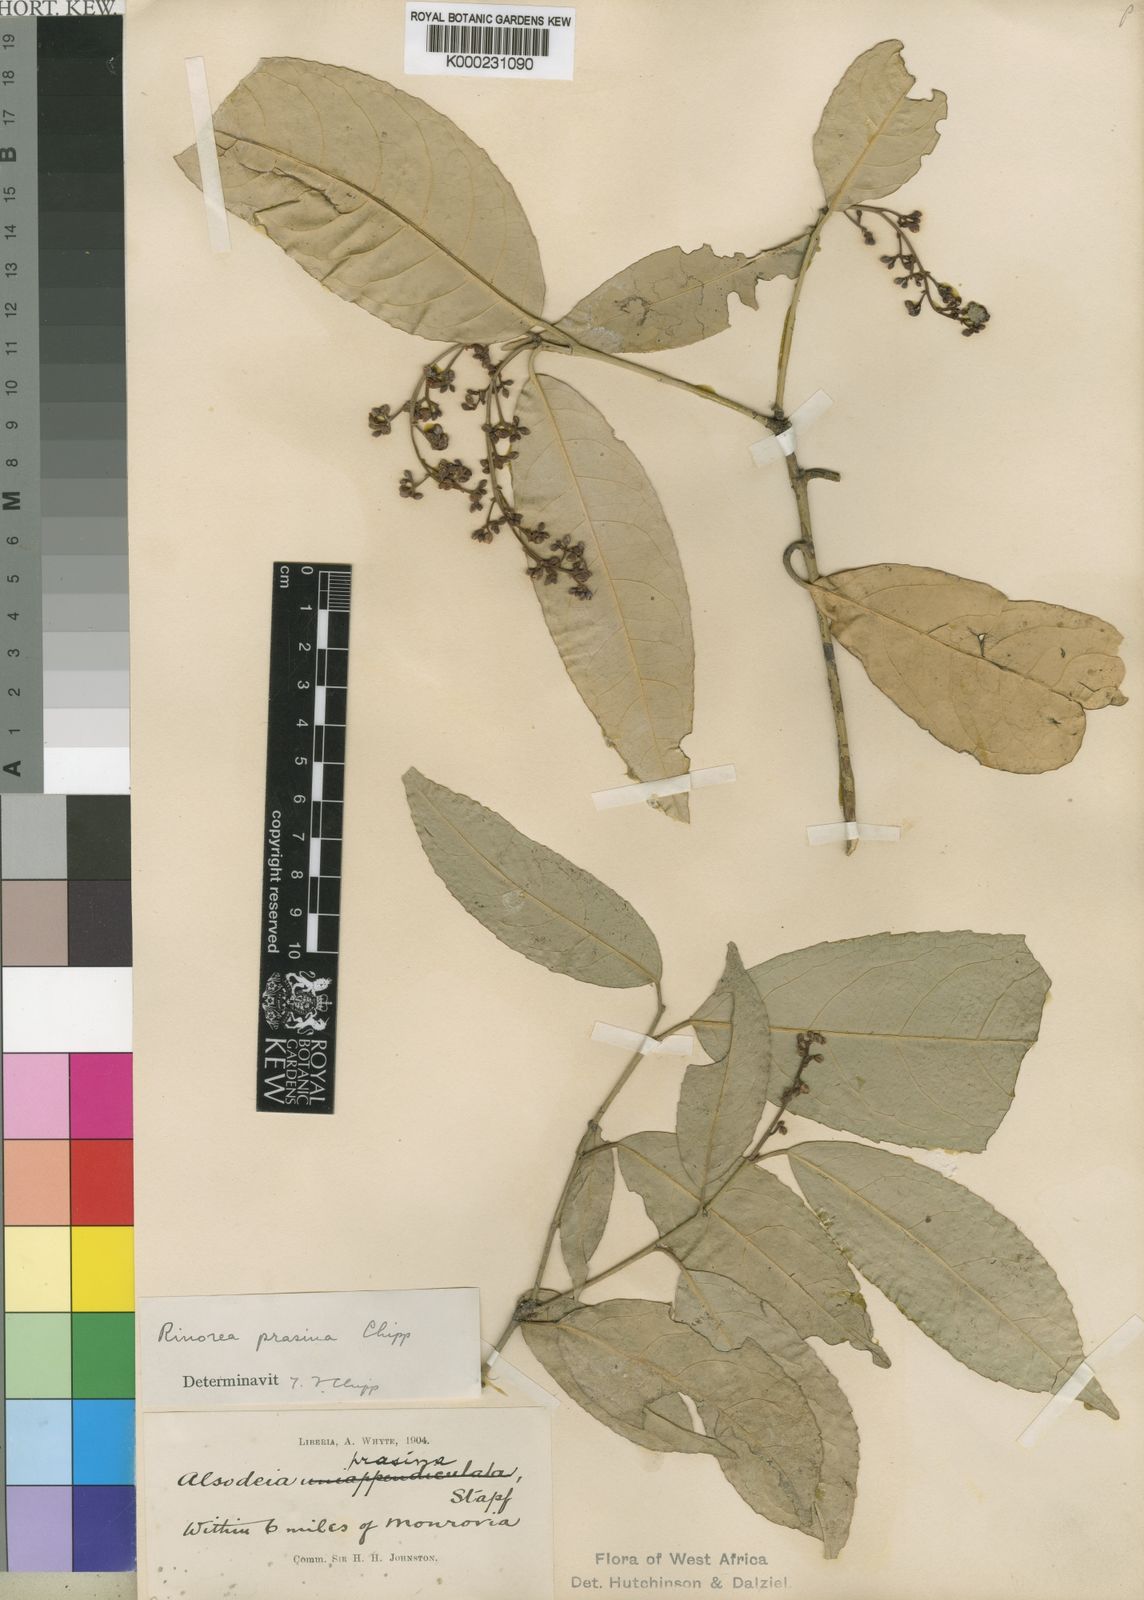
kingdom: Plantae
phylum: Tracheophyta
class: Magnoliopsida
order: Malpighiales
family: Violaceae
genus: Rinorea
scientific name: Rinorea prasina
